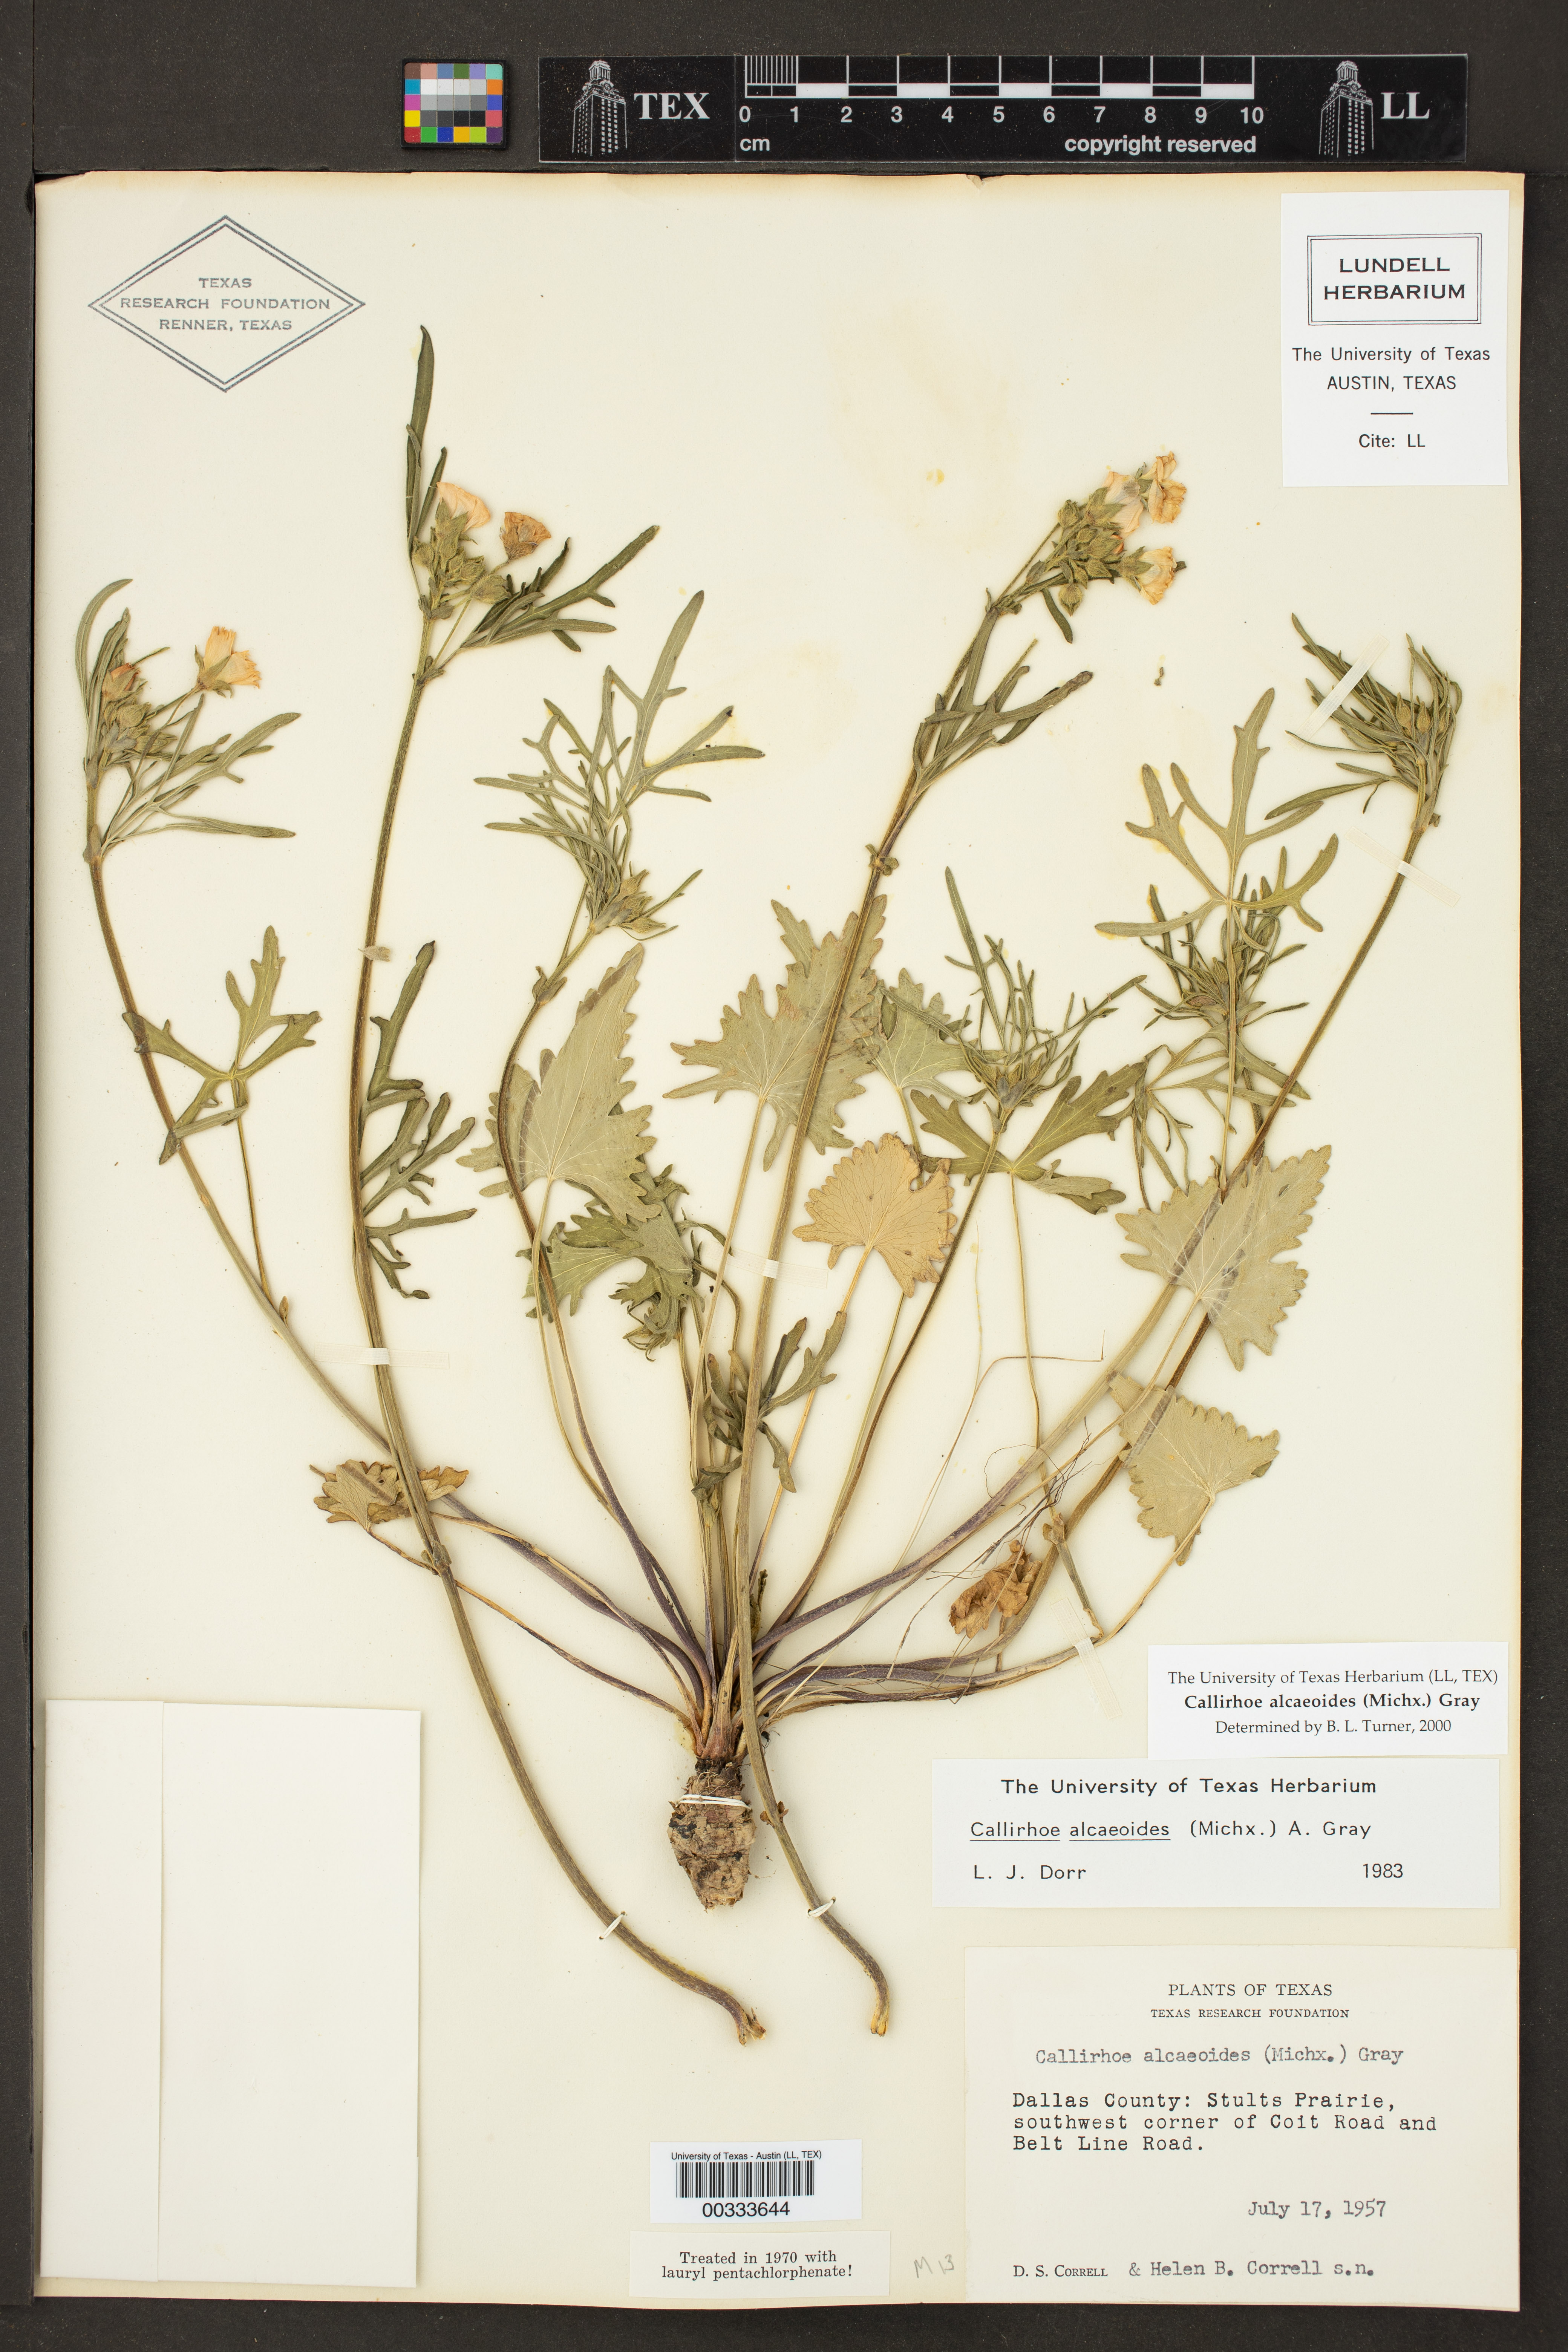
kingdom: Plantae
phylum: Tracheophyta
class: Magnoliopsida
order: Malvales
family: Malvaceae
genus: Callirhoe
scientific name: Callirhoe alcaeoides
